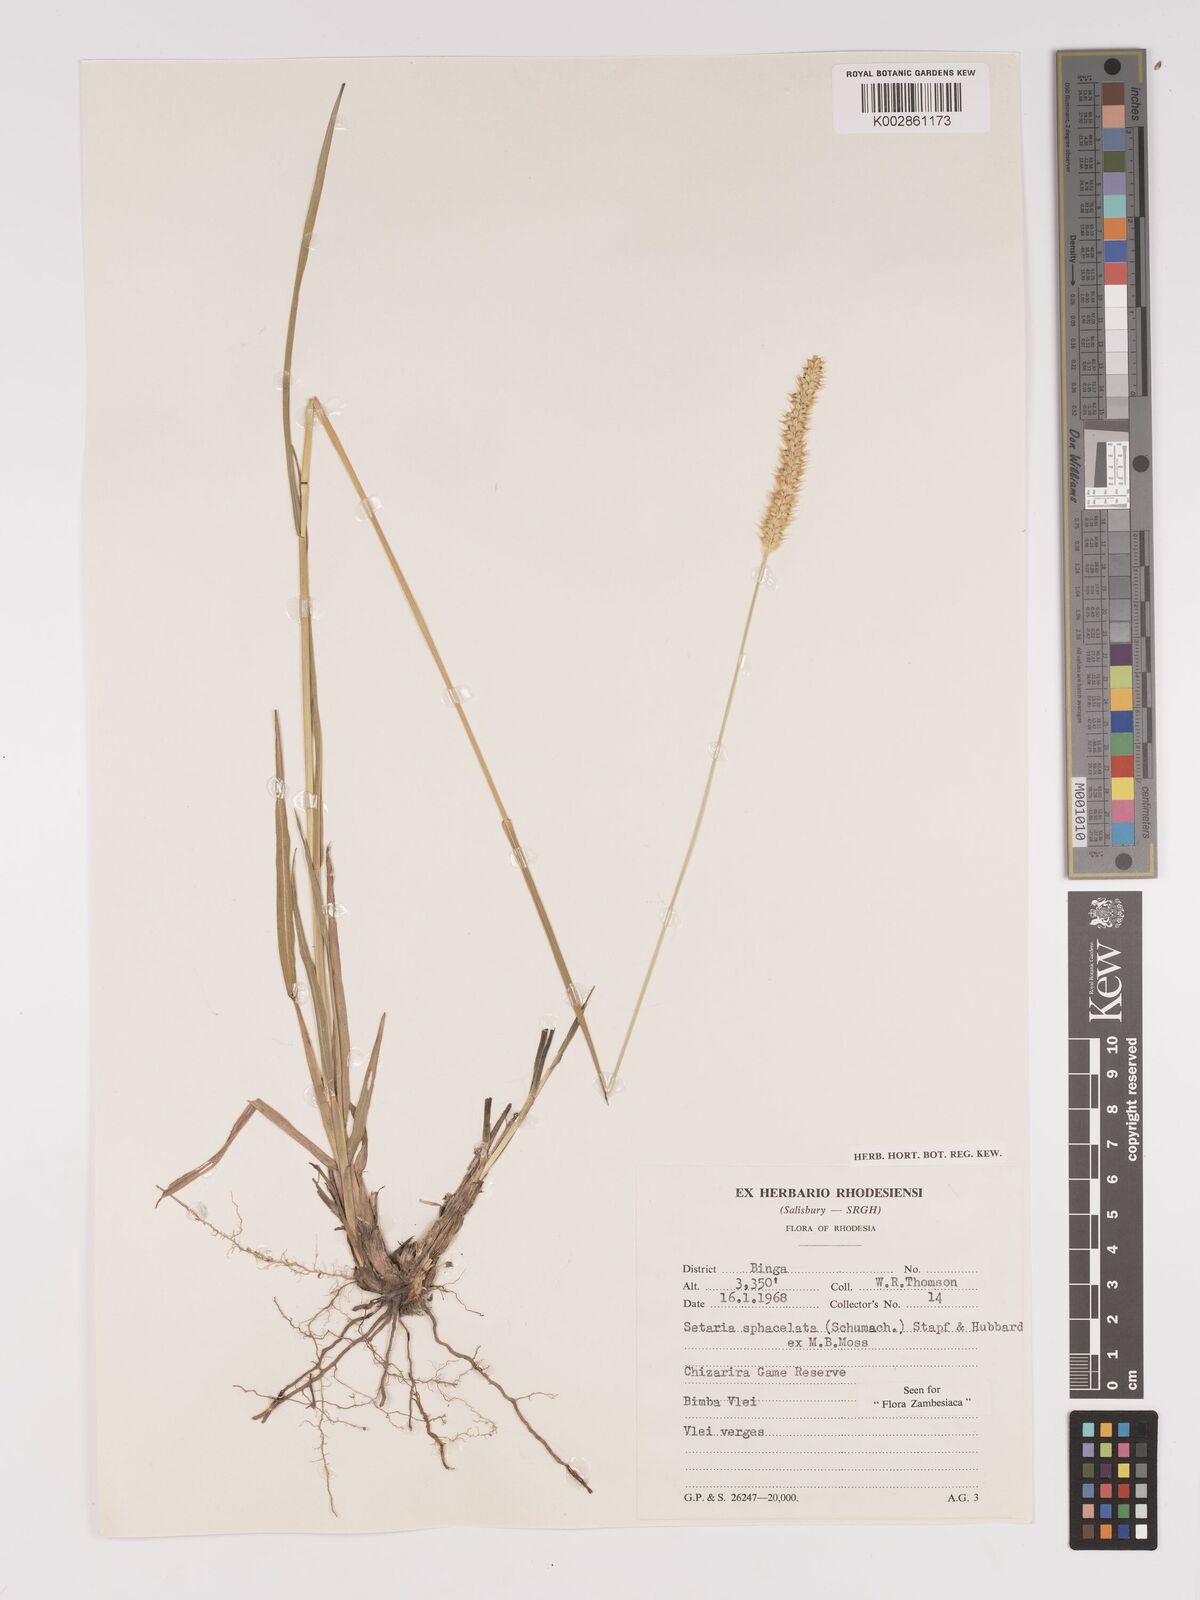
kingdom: Plantae
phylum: Tracheophyta
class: Liliopsida
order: Poales
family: Poaceae
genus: Setaria
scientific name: Setaria sphacelata
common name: African bristlegrass
